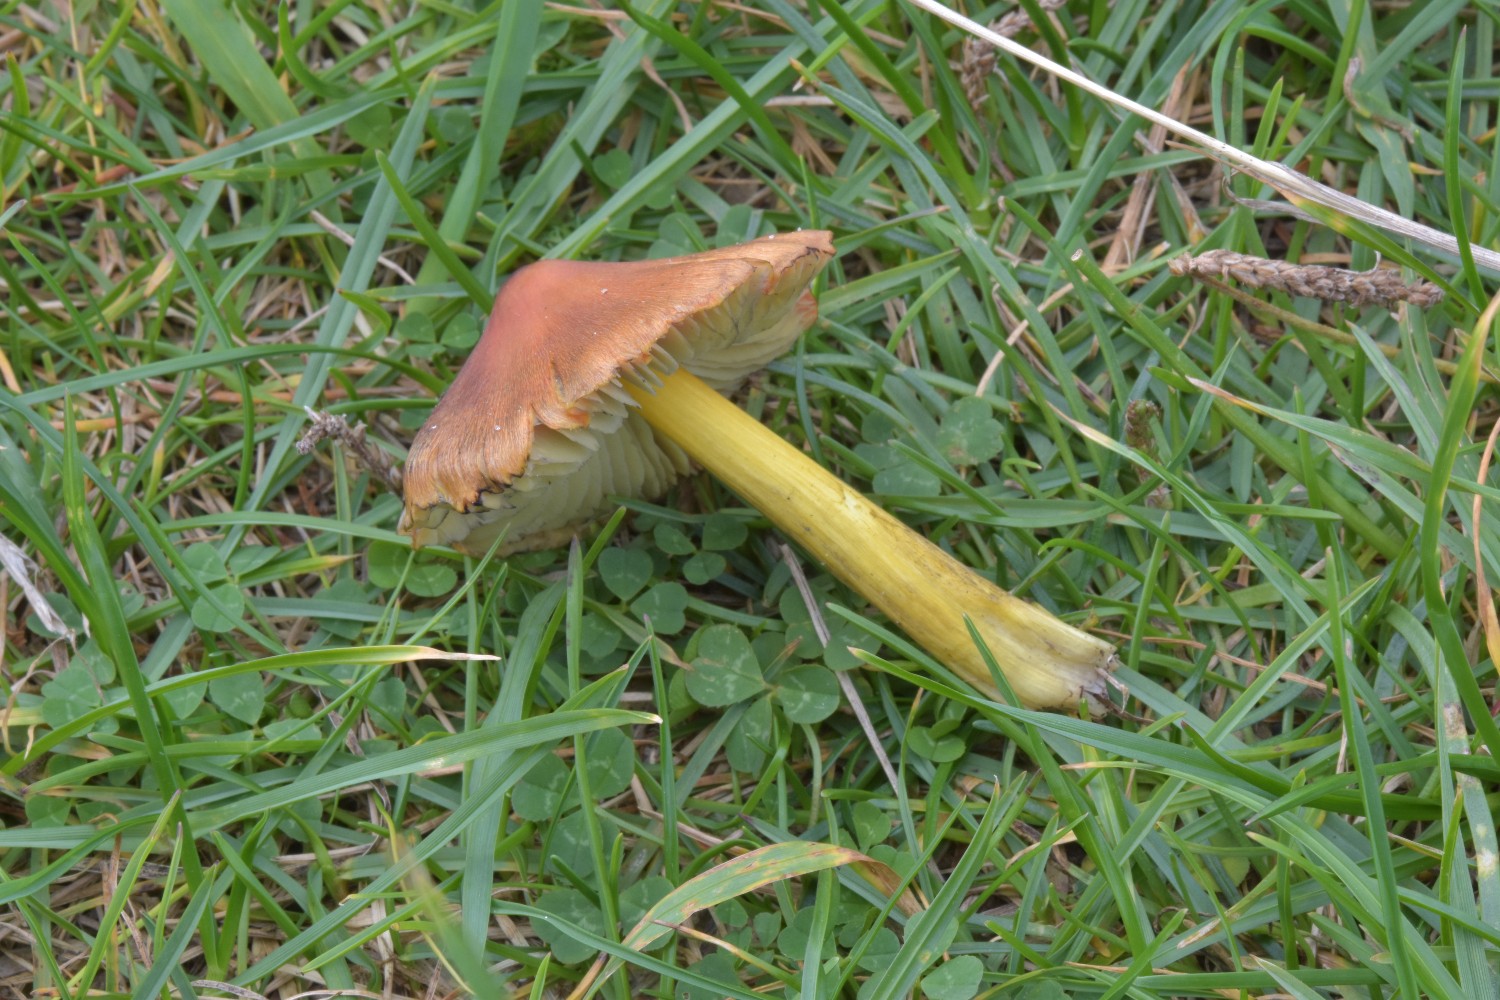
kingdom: Fungi
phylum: Basidiomycota
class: Agaricomycetes
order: Agaricales
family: Hygrophoraceae
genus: Hygrocybe
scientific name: Hygrocybe conica
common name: kegle-vokshat
